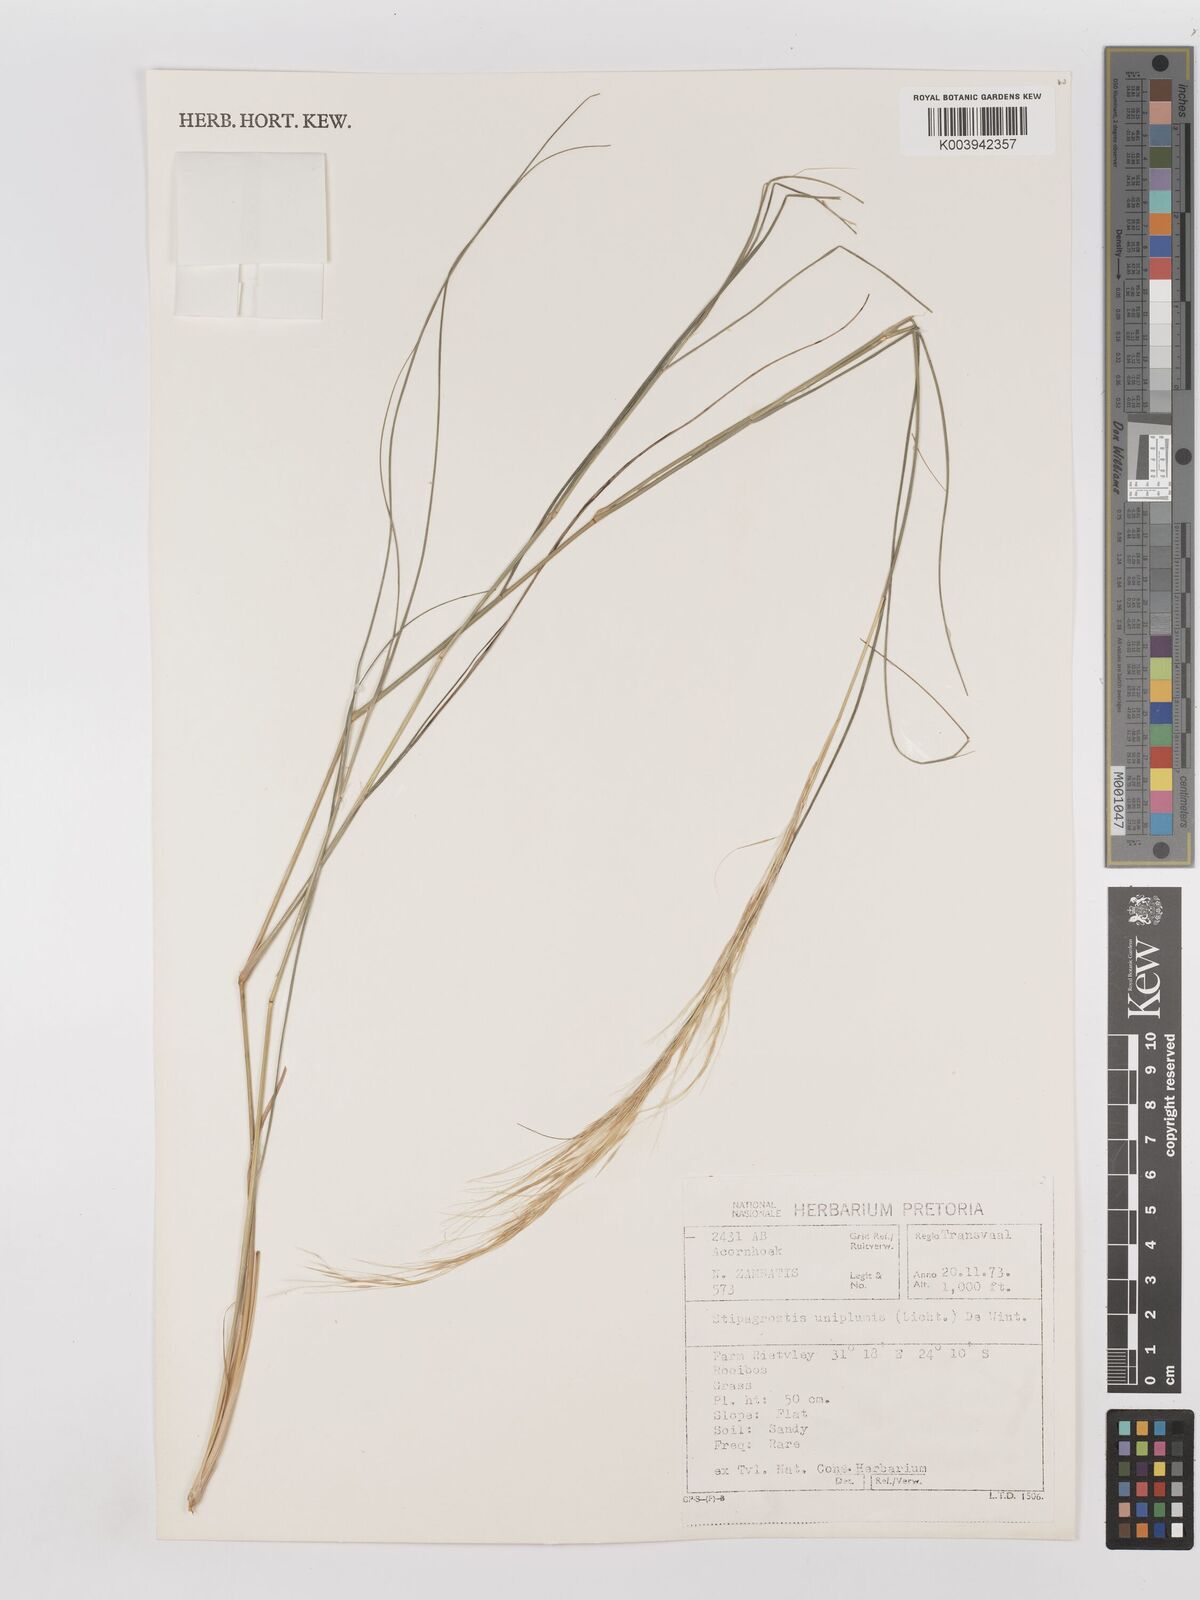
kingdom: Plantae
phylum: Tracheophyta
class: Liliopsida
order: Poales
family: Poaceae
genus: Stipagrostis
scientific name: Stipagrostis uniplumis
